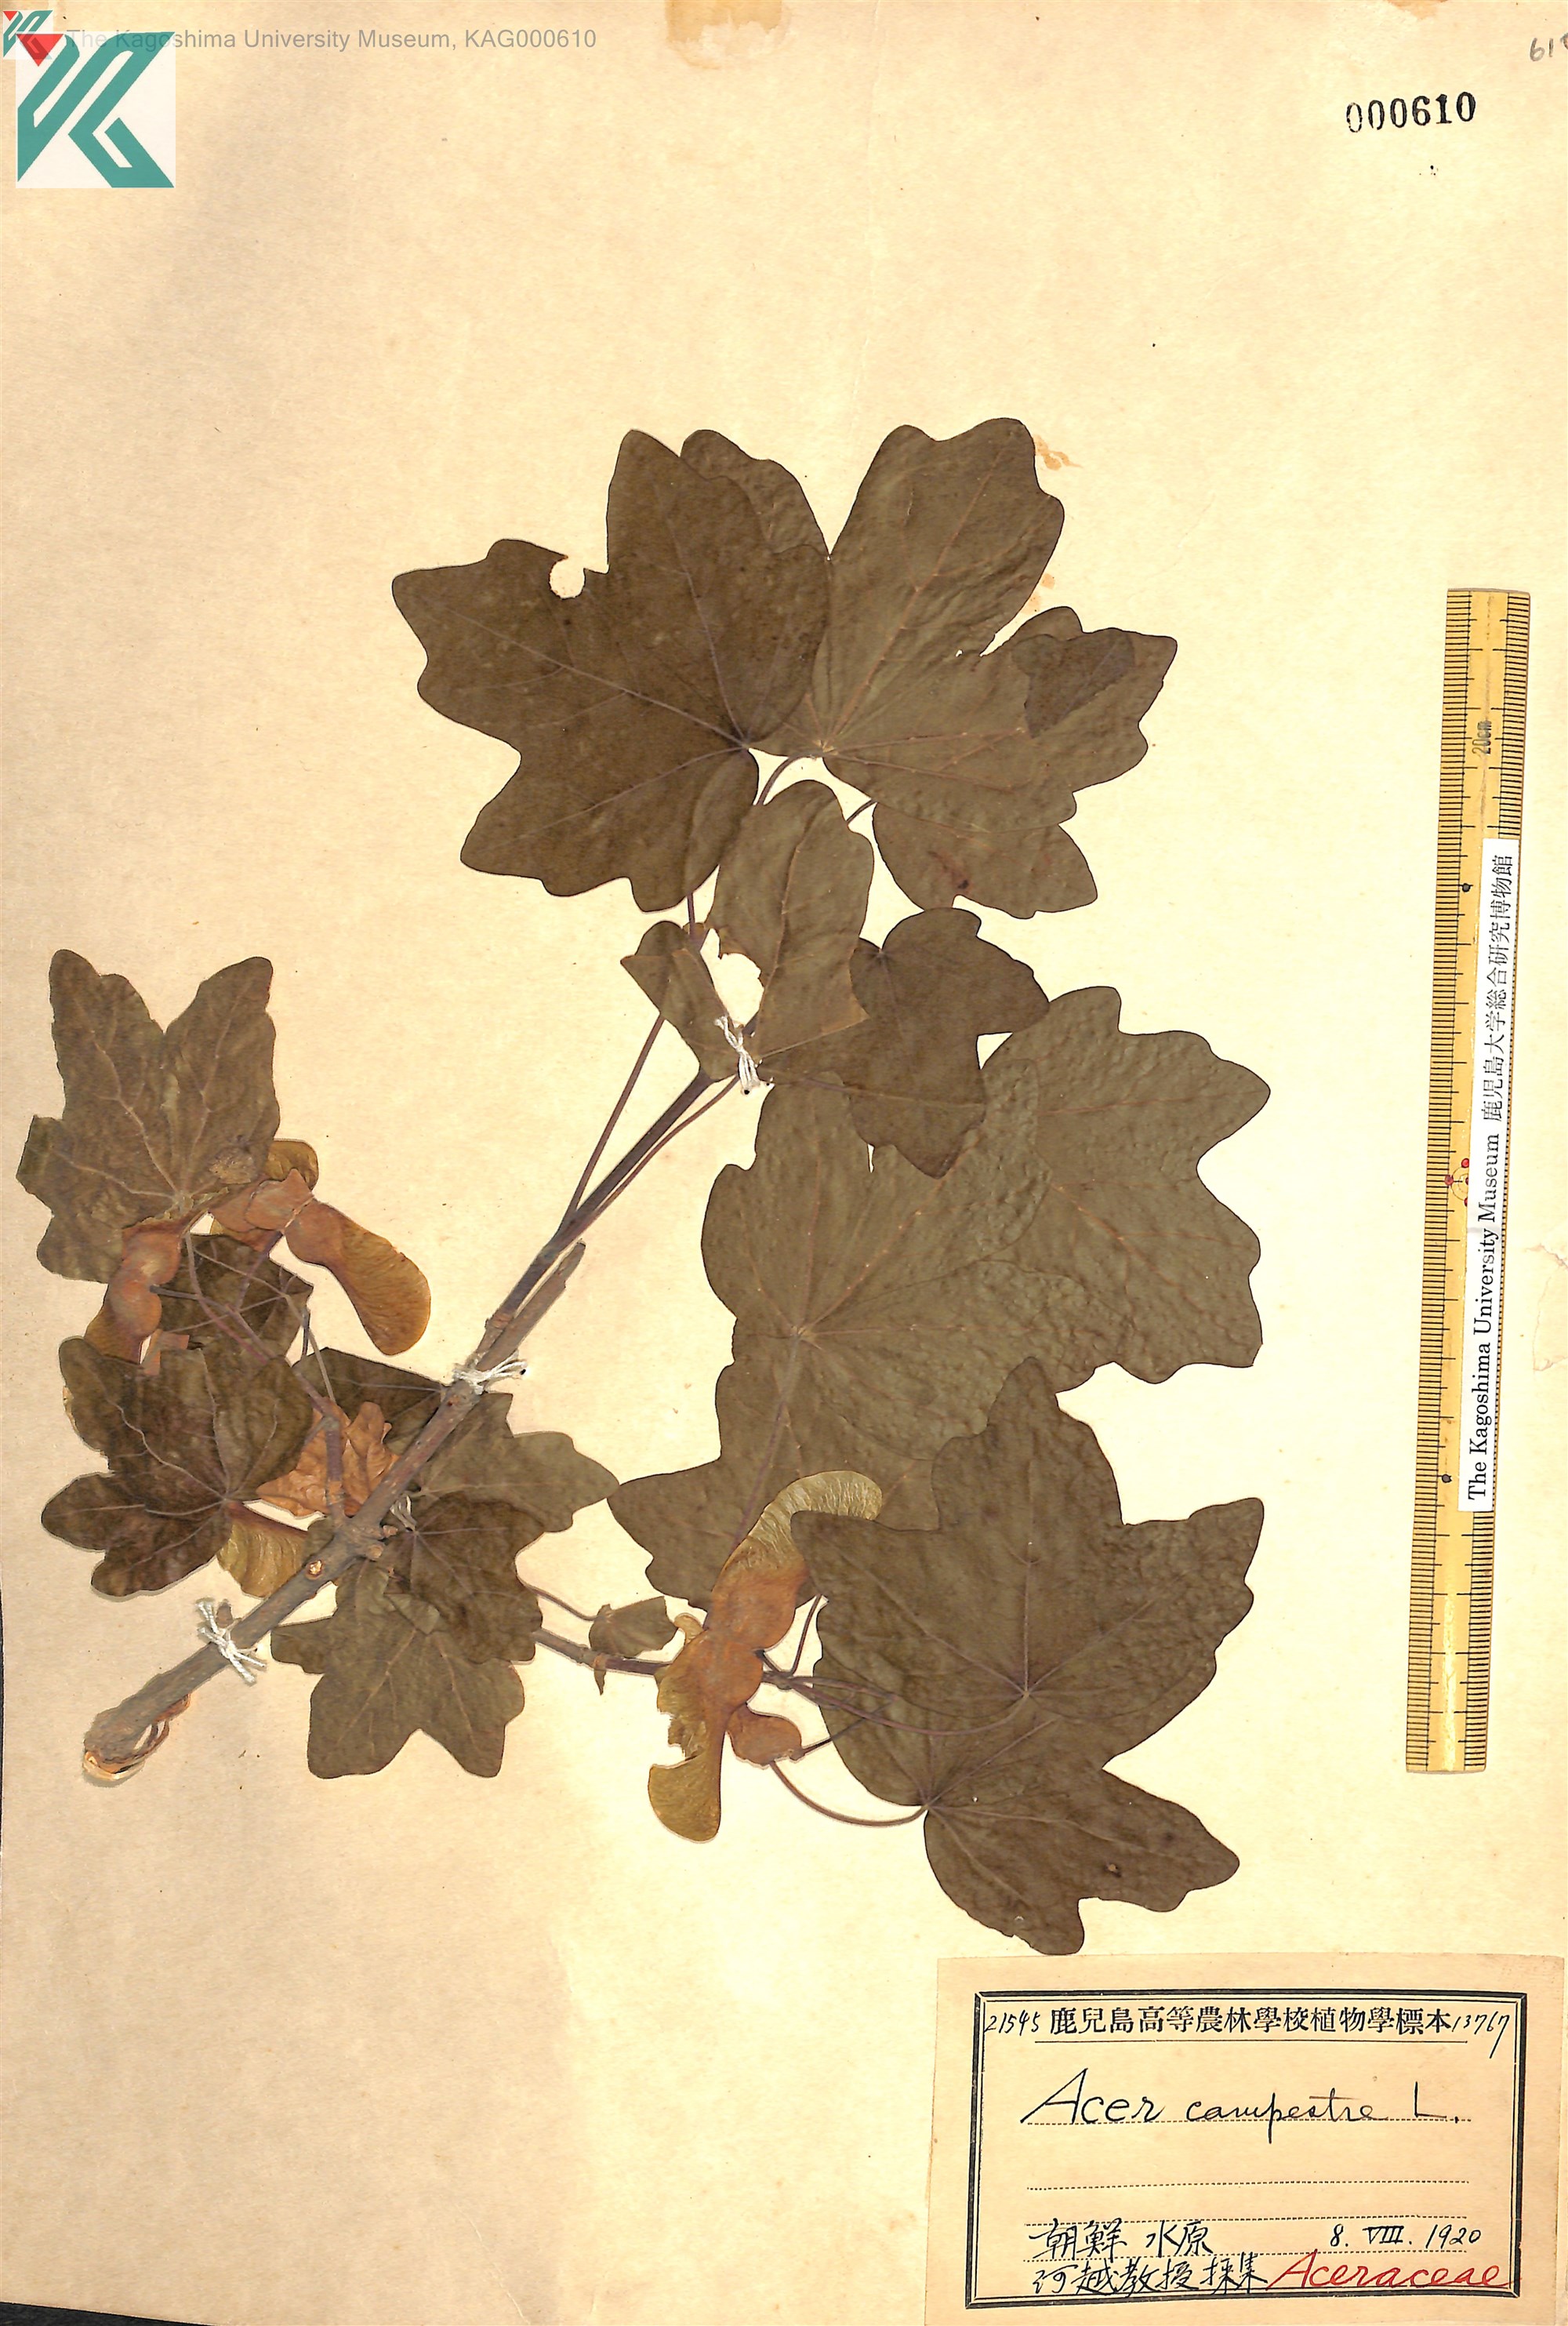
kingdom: Plantae
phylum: Tracheophyta
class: Magnoliopsida
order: Sapindales
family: Sapindaceae
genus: Acer
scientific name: Acer campestre
